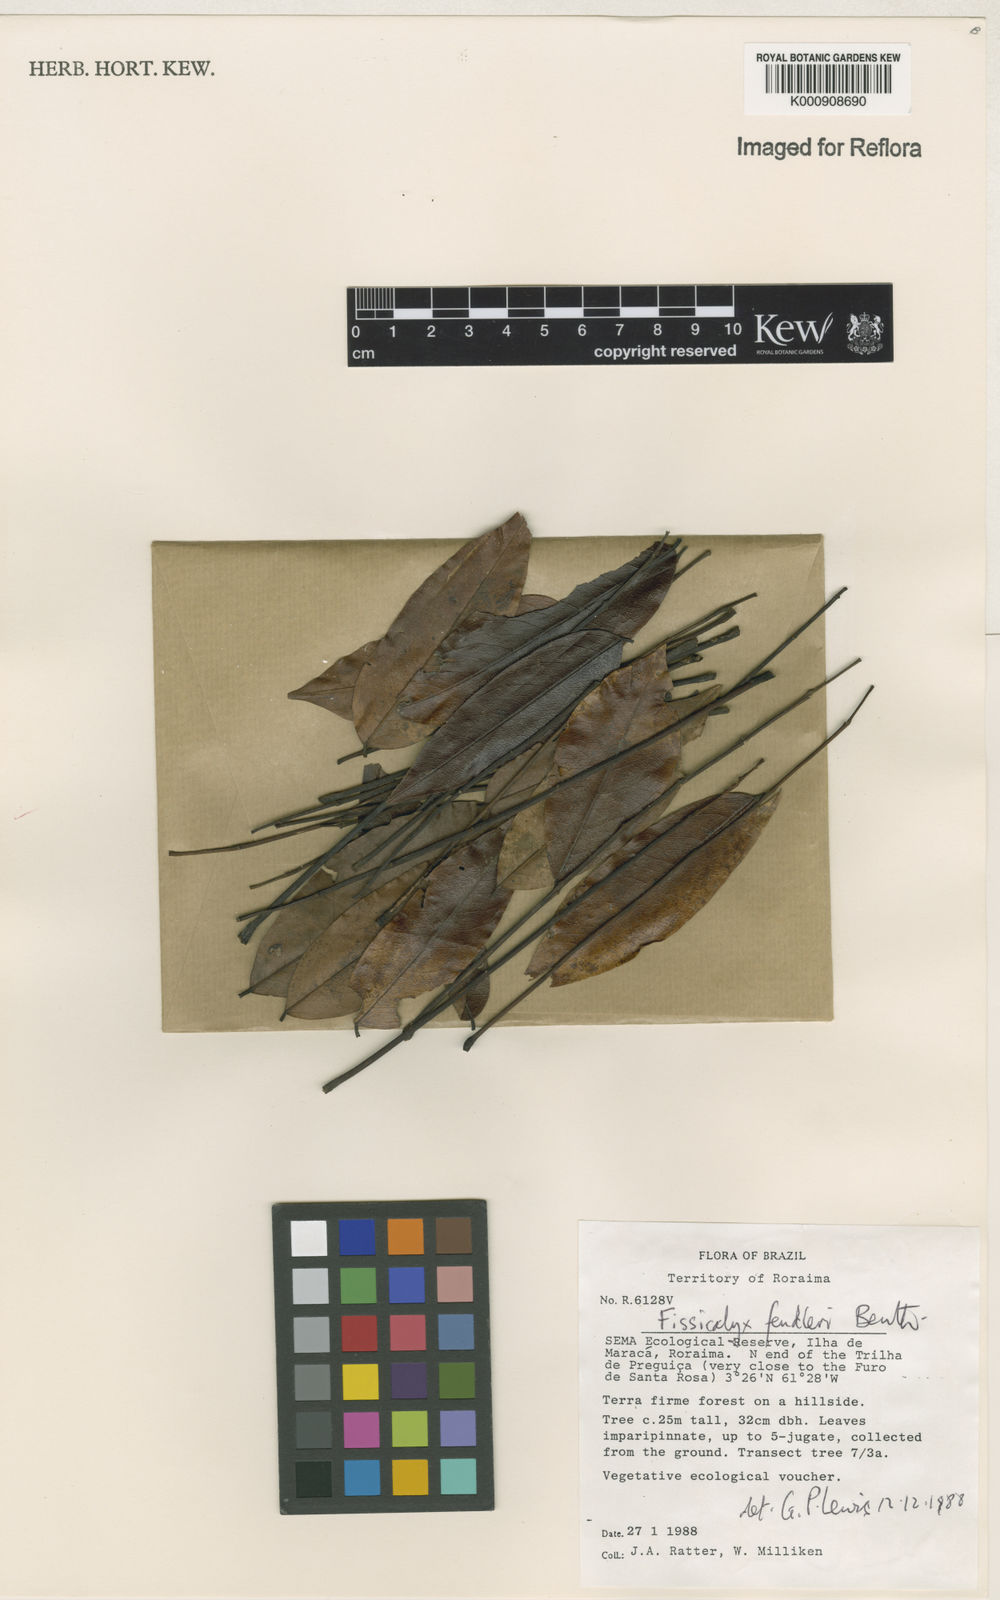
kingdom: Plantae
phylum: Tracheophyta
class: Magnoliopsida
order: Fabales
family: Fabaceae
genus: Fissicalyx
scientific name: Fissicalyx fendleri
